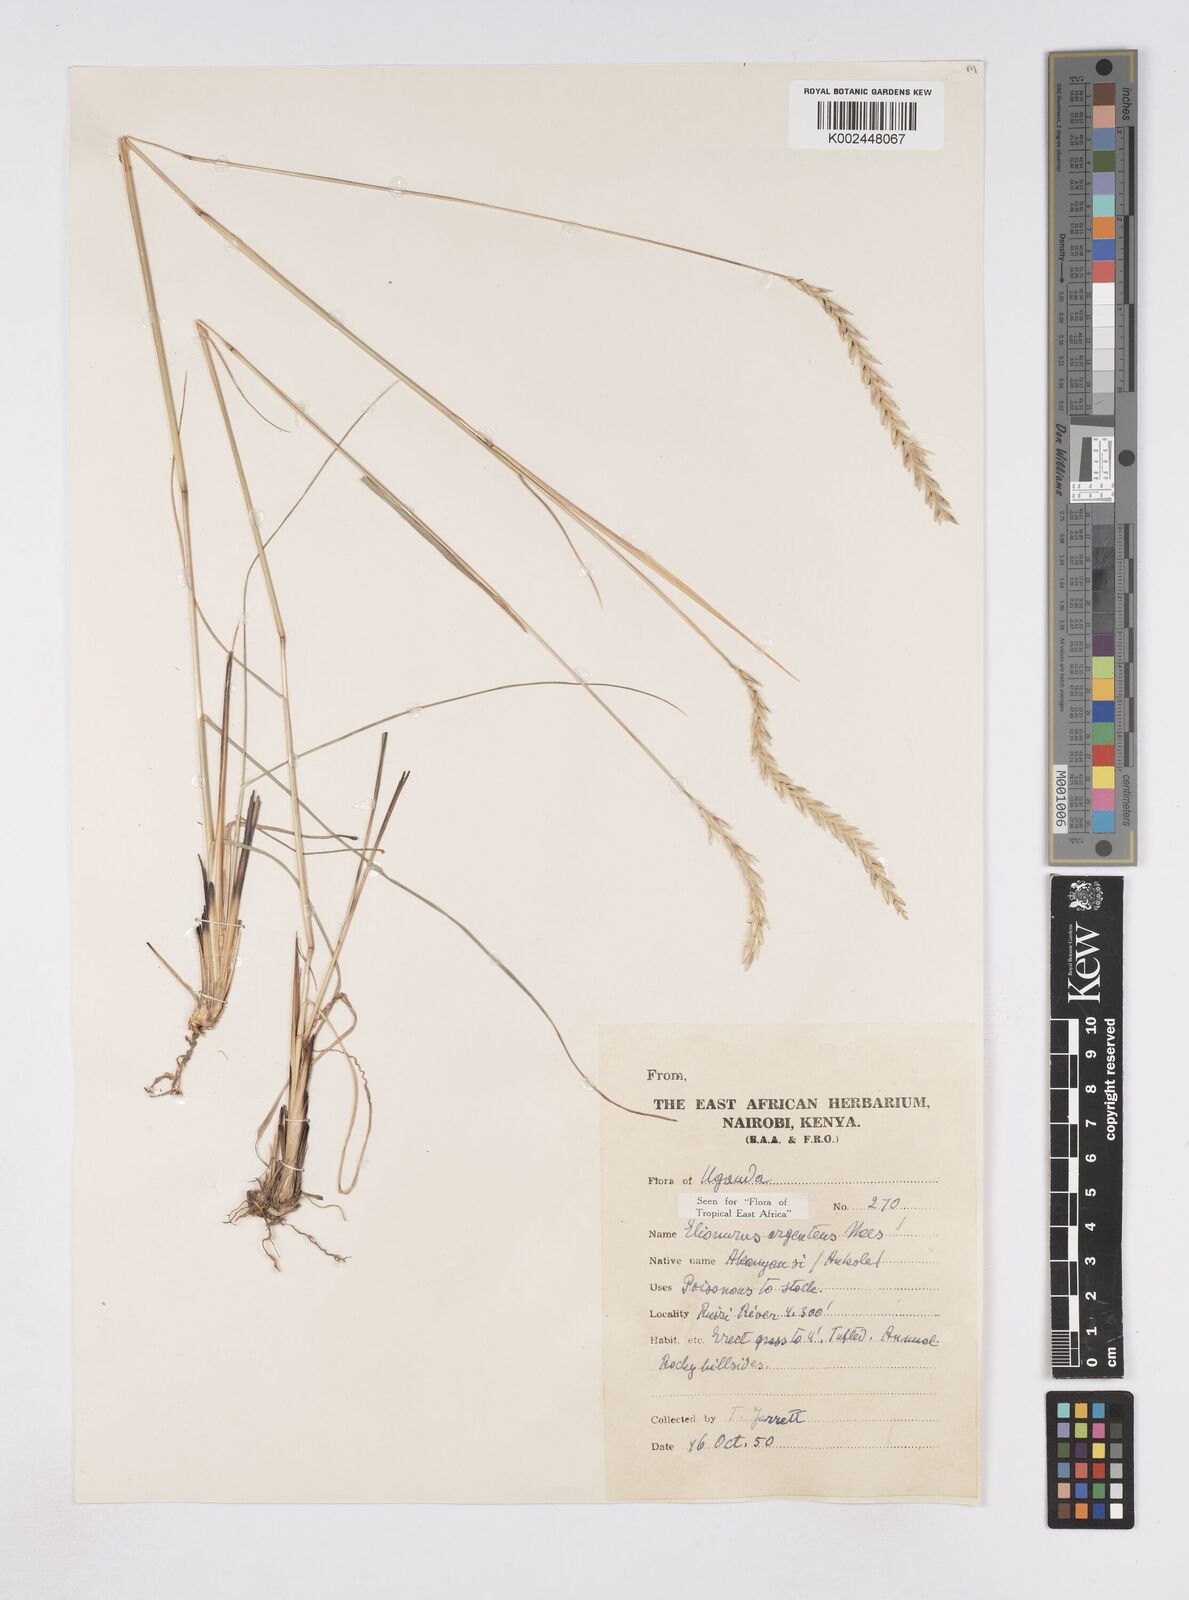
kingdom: Plantae
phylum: Tracheophyta
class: Liliopsida
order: Poales
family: Poaceae
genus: Elionurus
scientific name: Elionurus muticus
